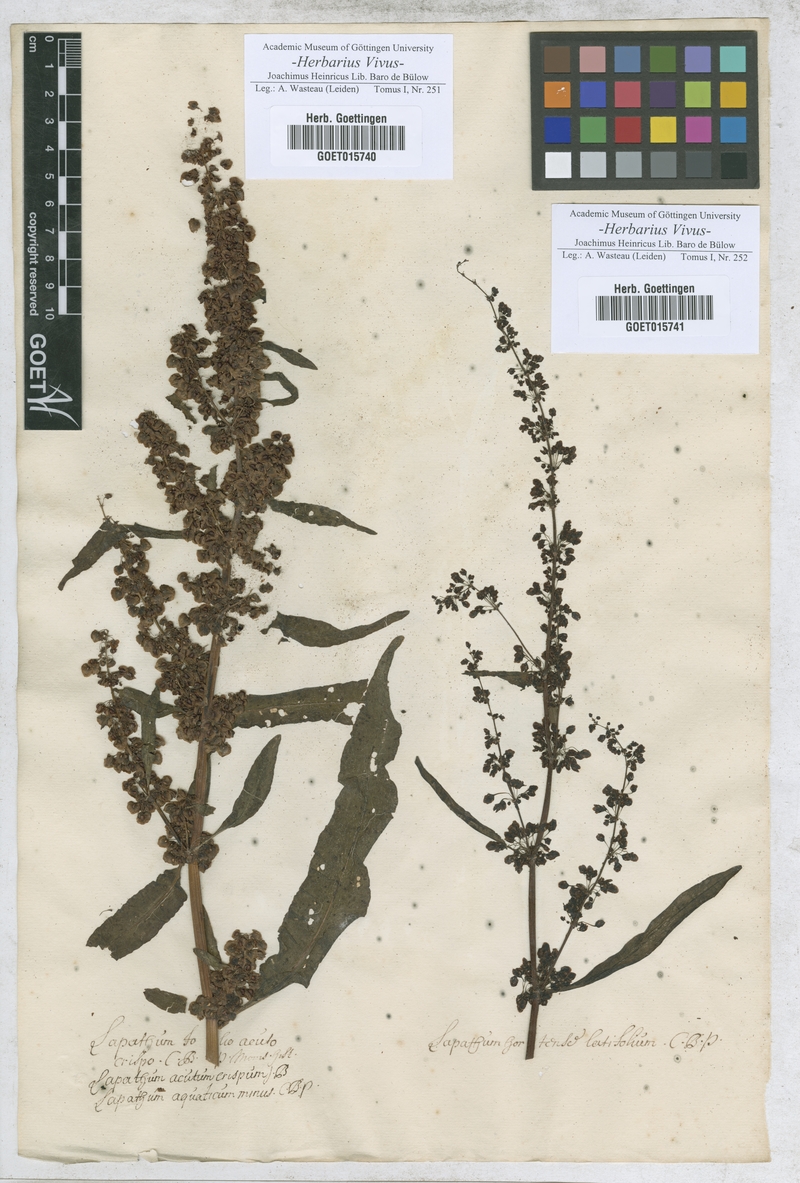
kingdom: Plantae
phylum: Tracheophyta
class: Magnoliopsida
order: Caryophyllales
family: Polygonaceae
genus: Rumex
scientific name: Rumex crispus
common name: Curled dock
